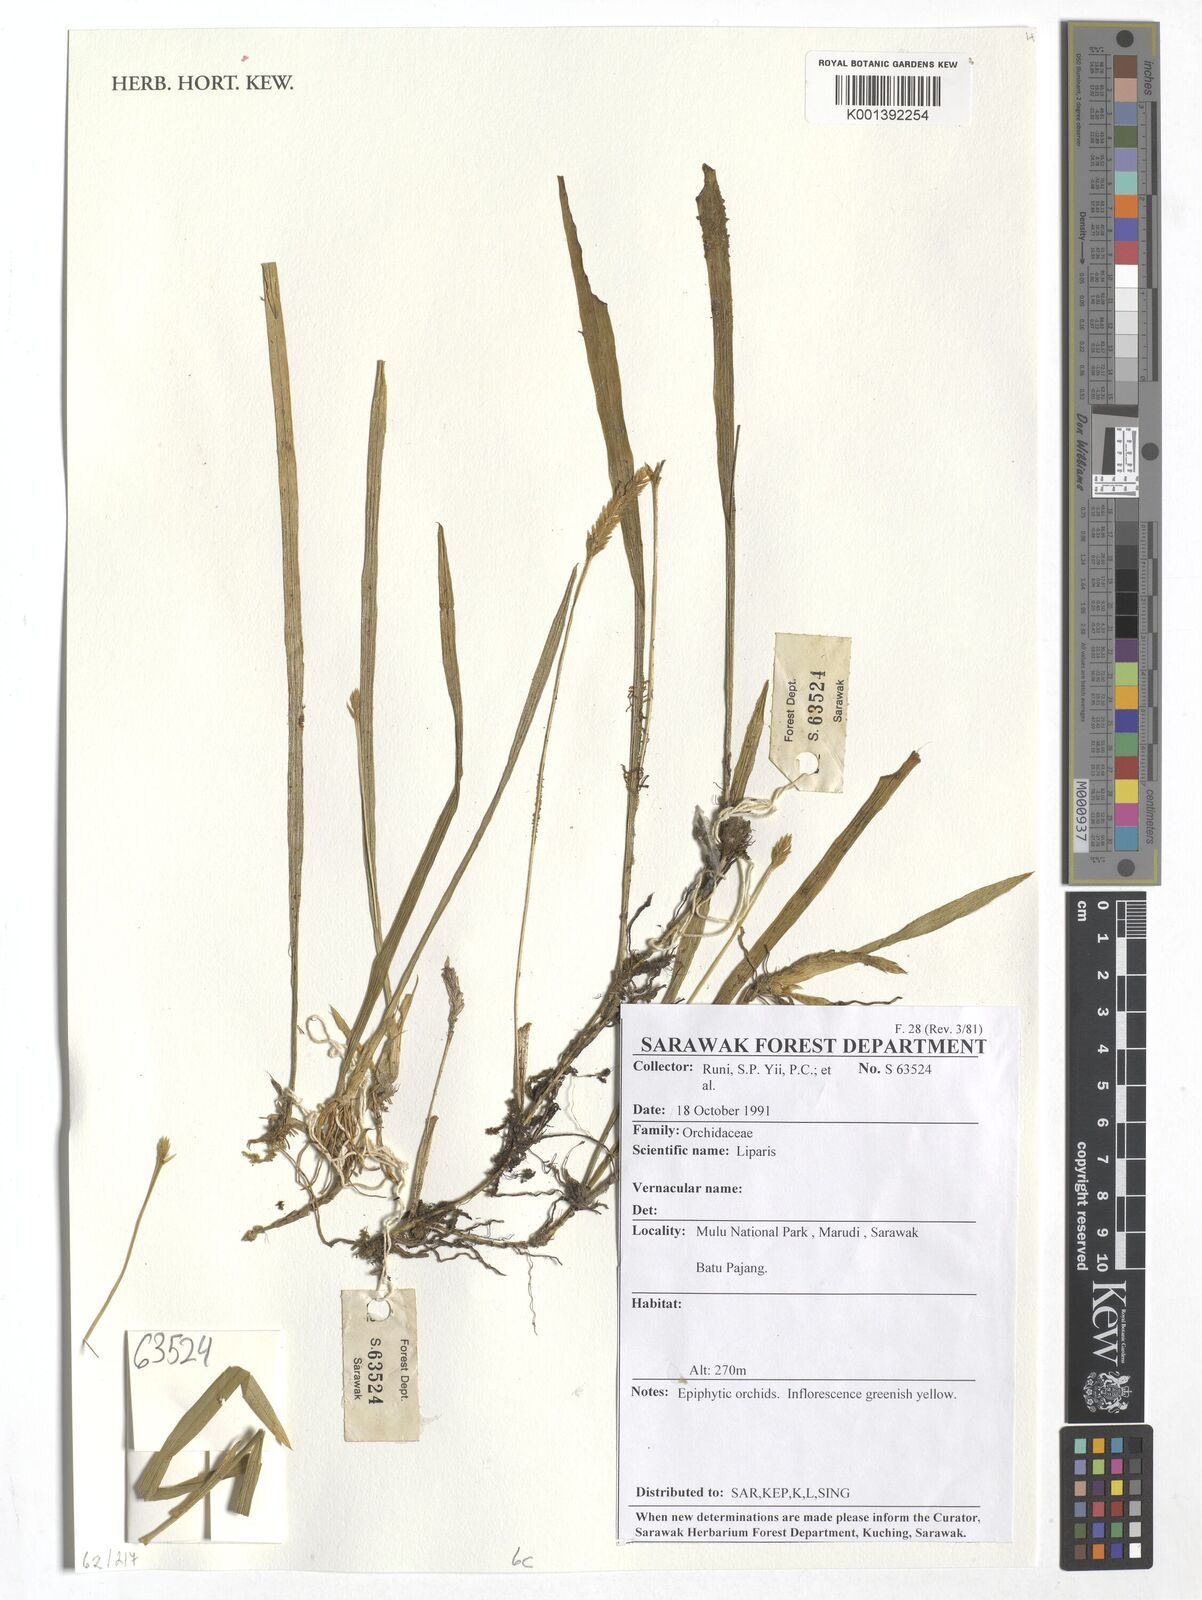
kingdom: Plantae
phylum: Tracheophyta
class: Liliopsida
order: Asparagales
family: Orchidaceae
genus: Liparis
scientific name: Liparis
